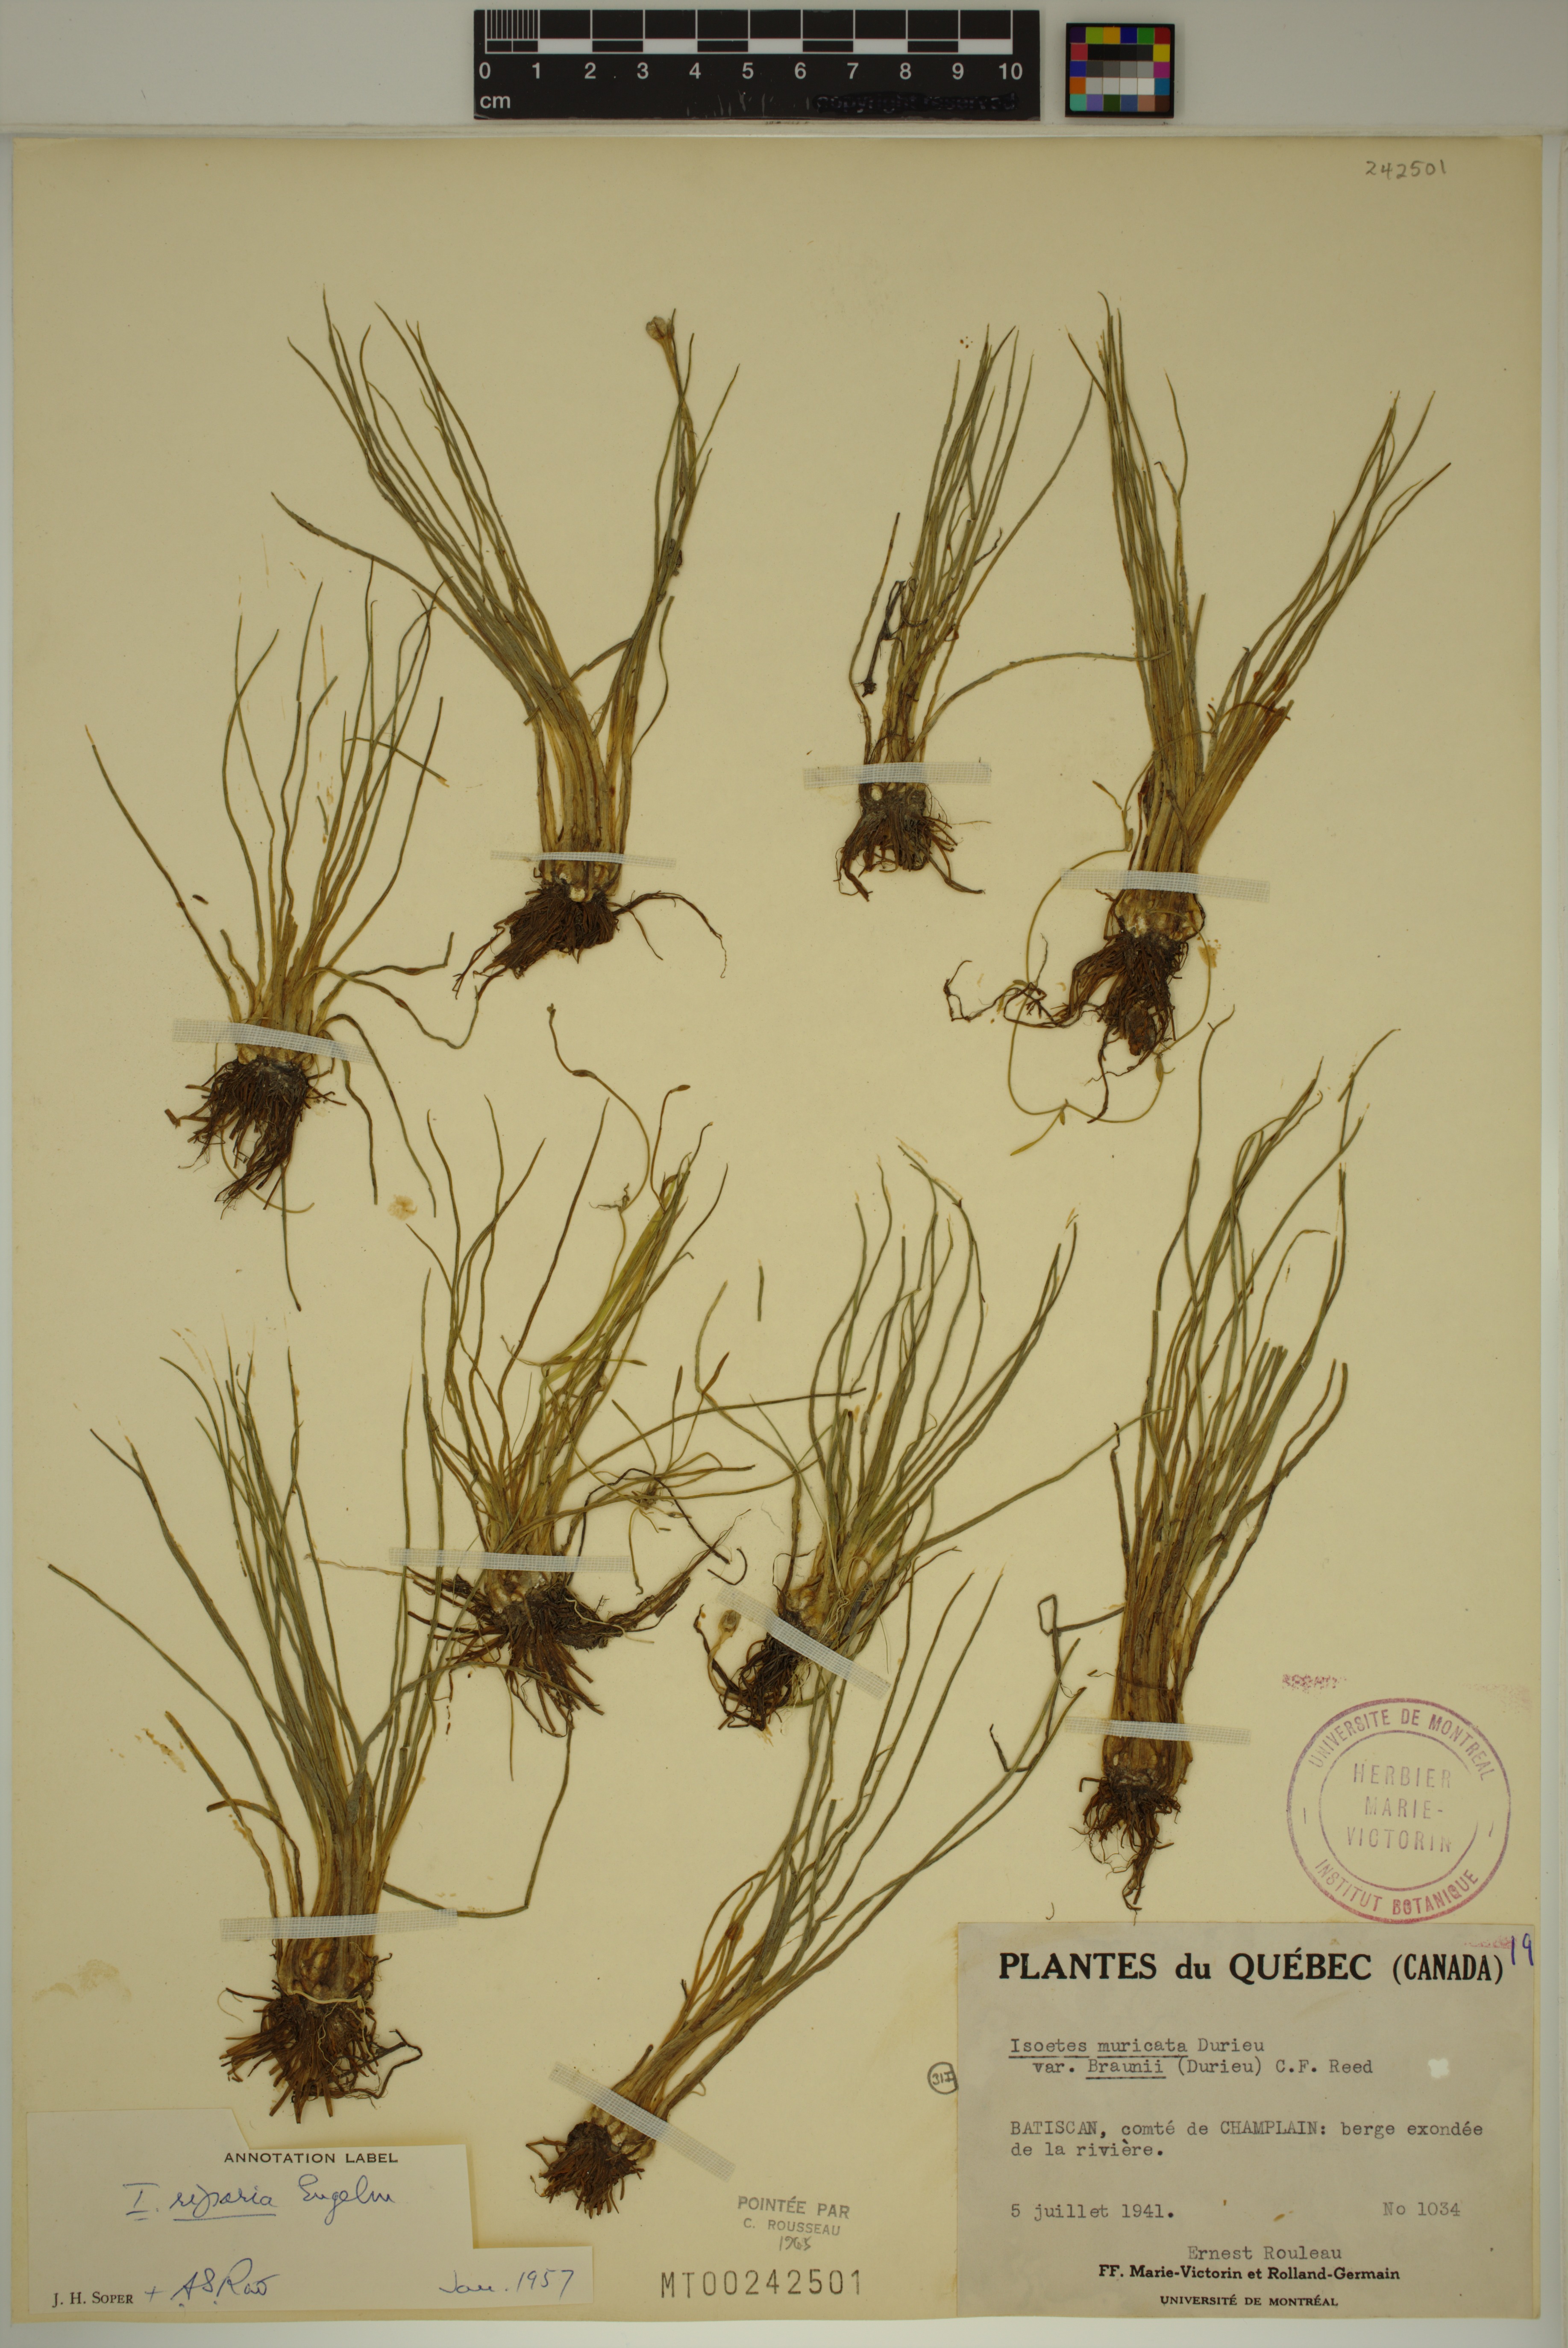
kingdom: Plantae
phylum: Tracheophyta
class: Lycopodiopsida
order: Isoetales
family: Isoetaceae
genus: Isoetes
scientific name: Isoetes septentrionalis
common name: Northern quillwort
